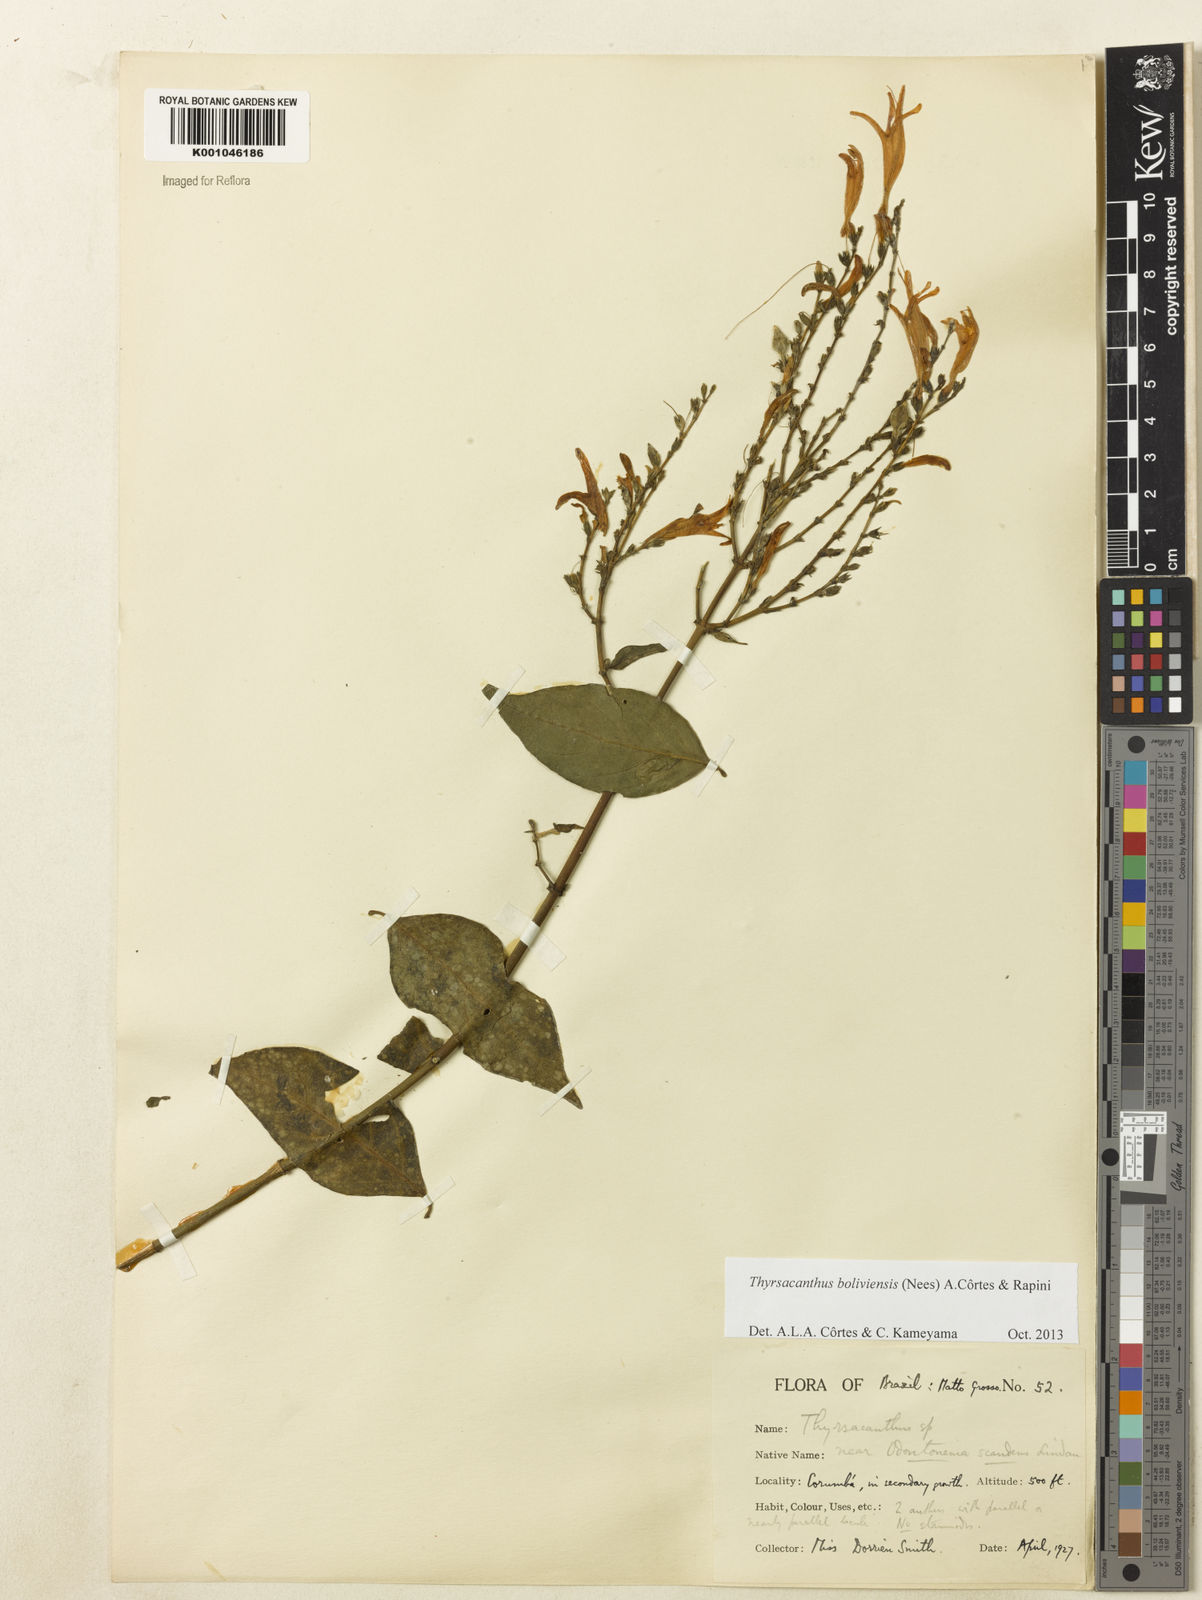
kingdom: Plantae
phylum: Tracheophyta
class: Magnoliopsida
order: Lamiales
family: Acanthaceae
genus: Thyrsacanthus
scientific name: Thyrsacanthus boliviensis
